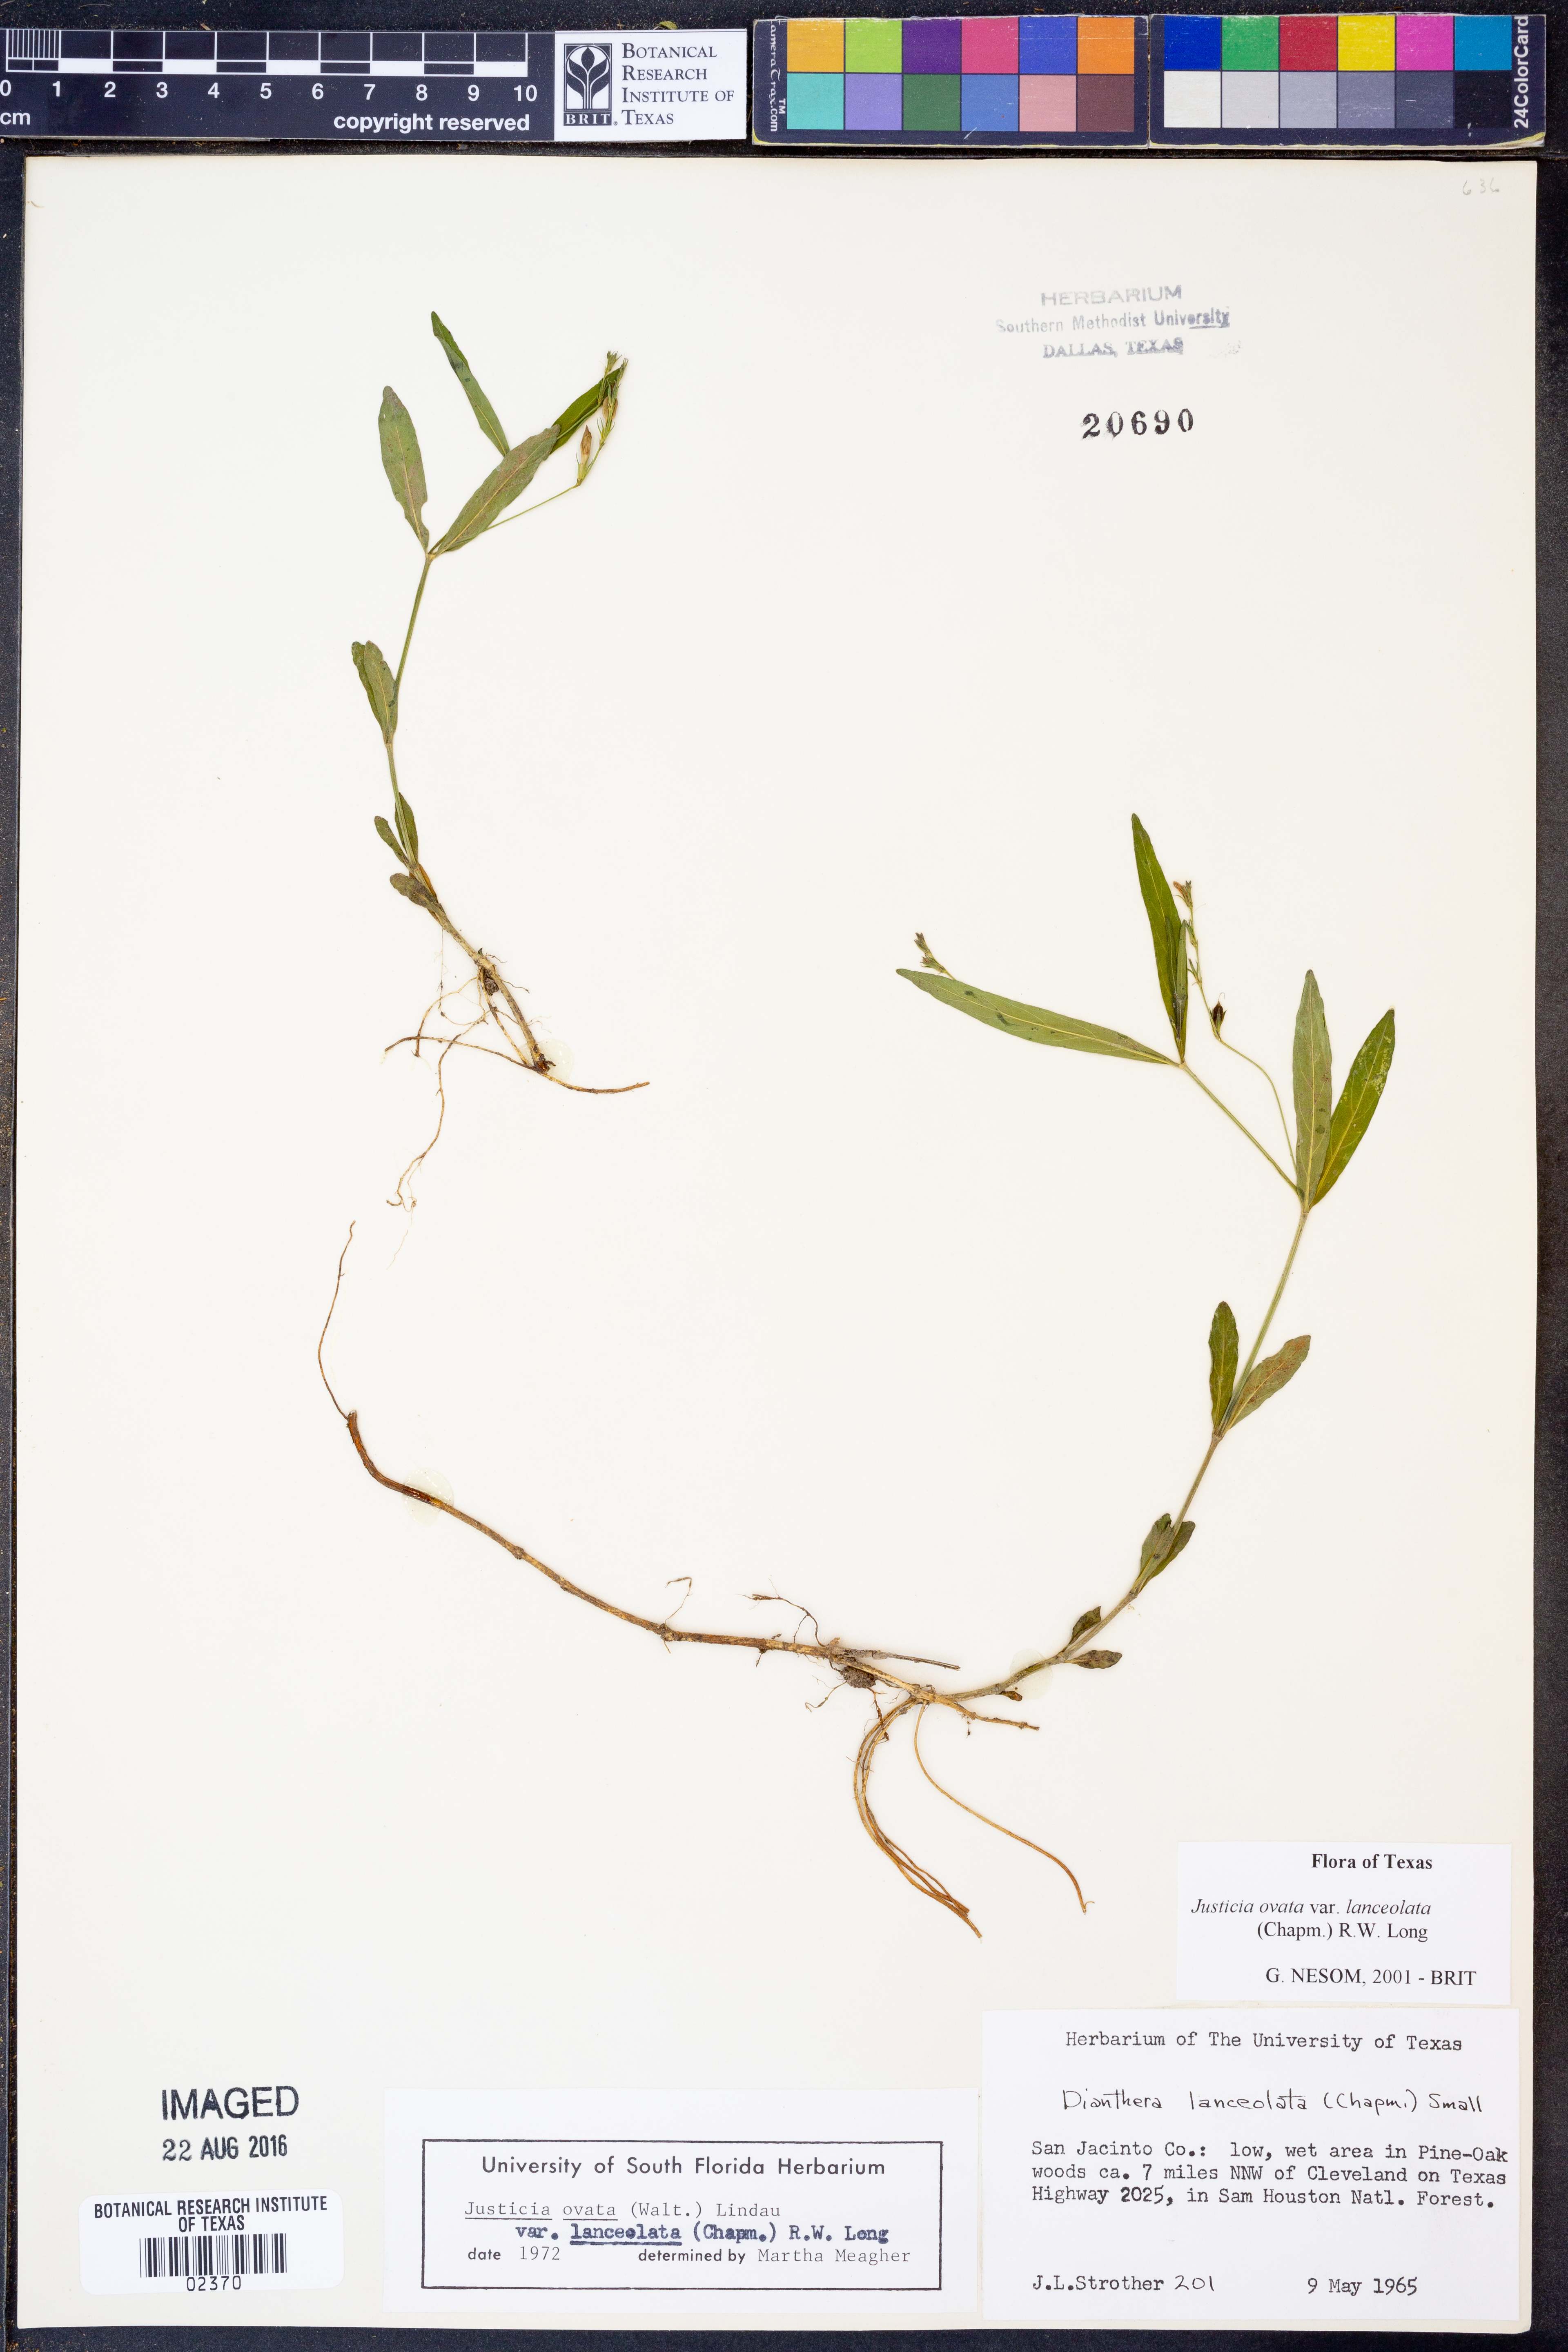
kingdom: Plantae
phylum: Tracheophyta
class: Magnoliopsida
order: Lamiales
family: Acanthaceae
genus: Justicia
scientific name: Justicia lanceolata
